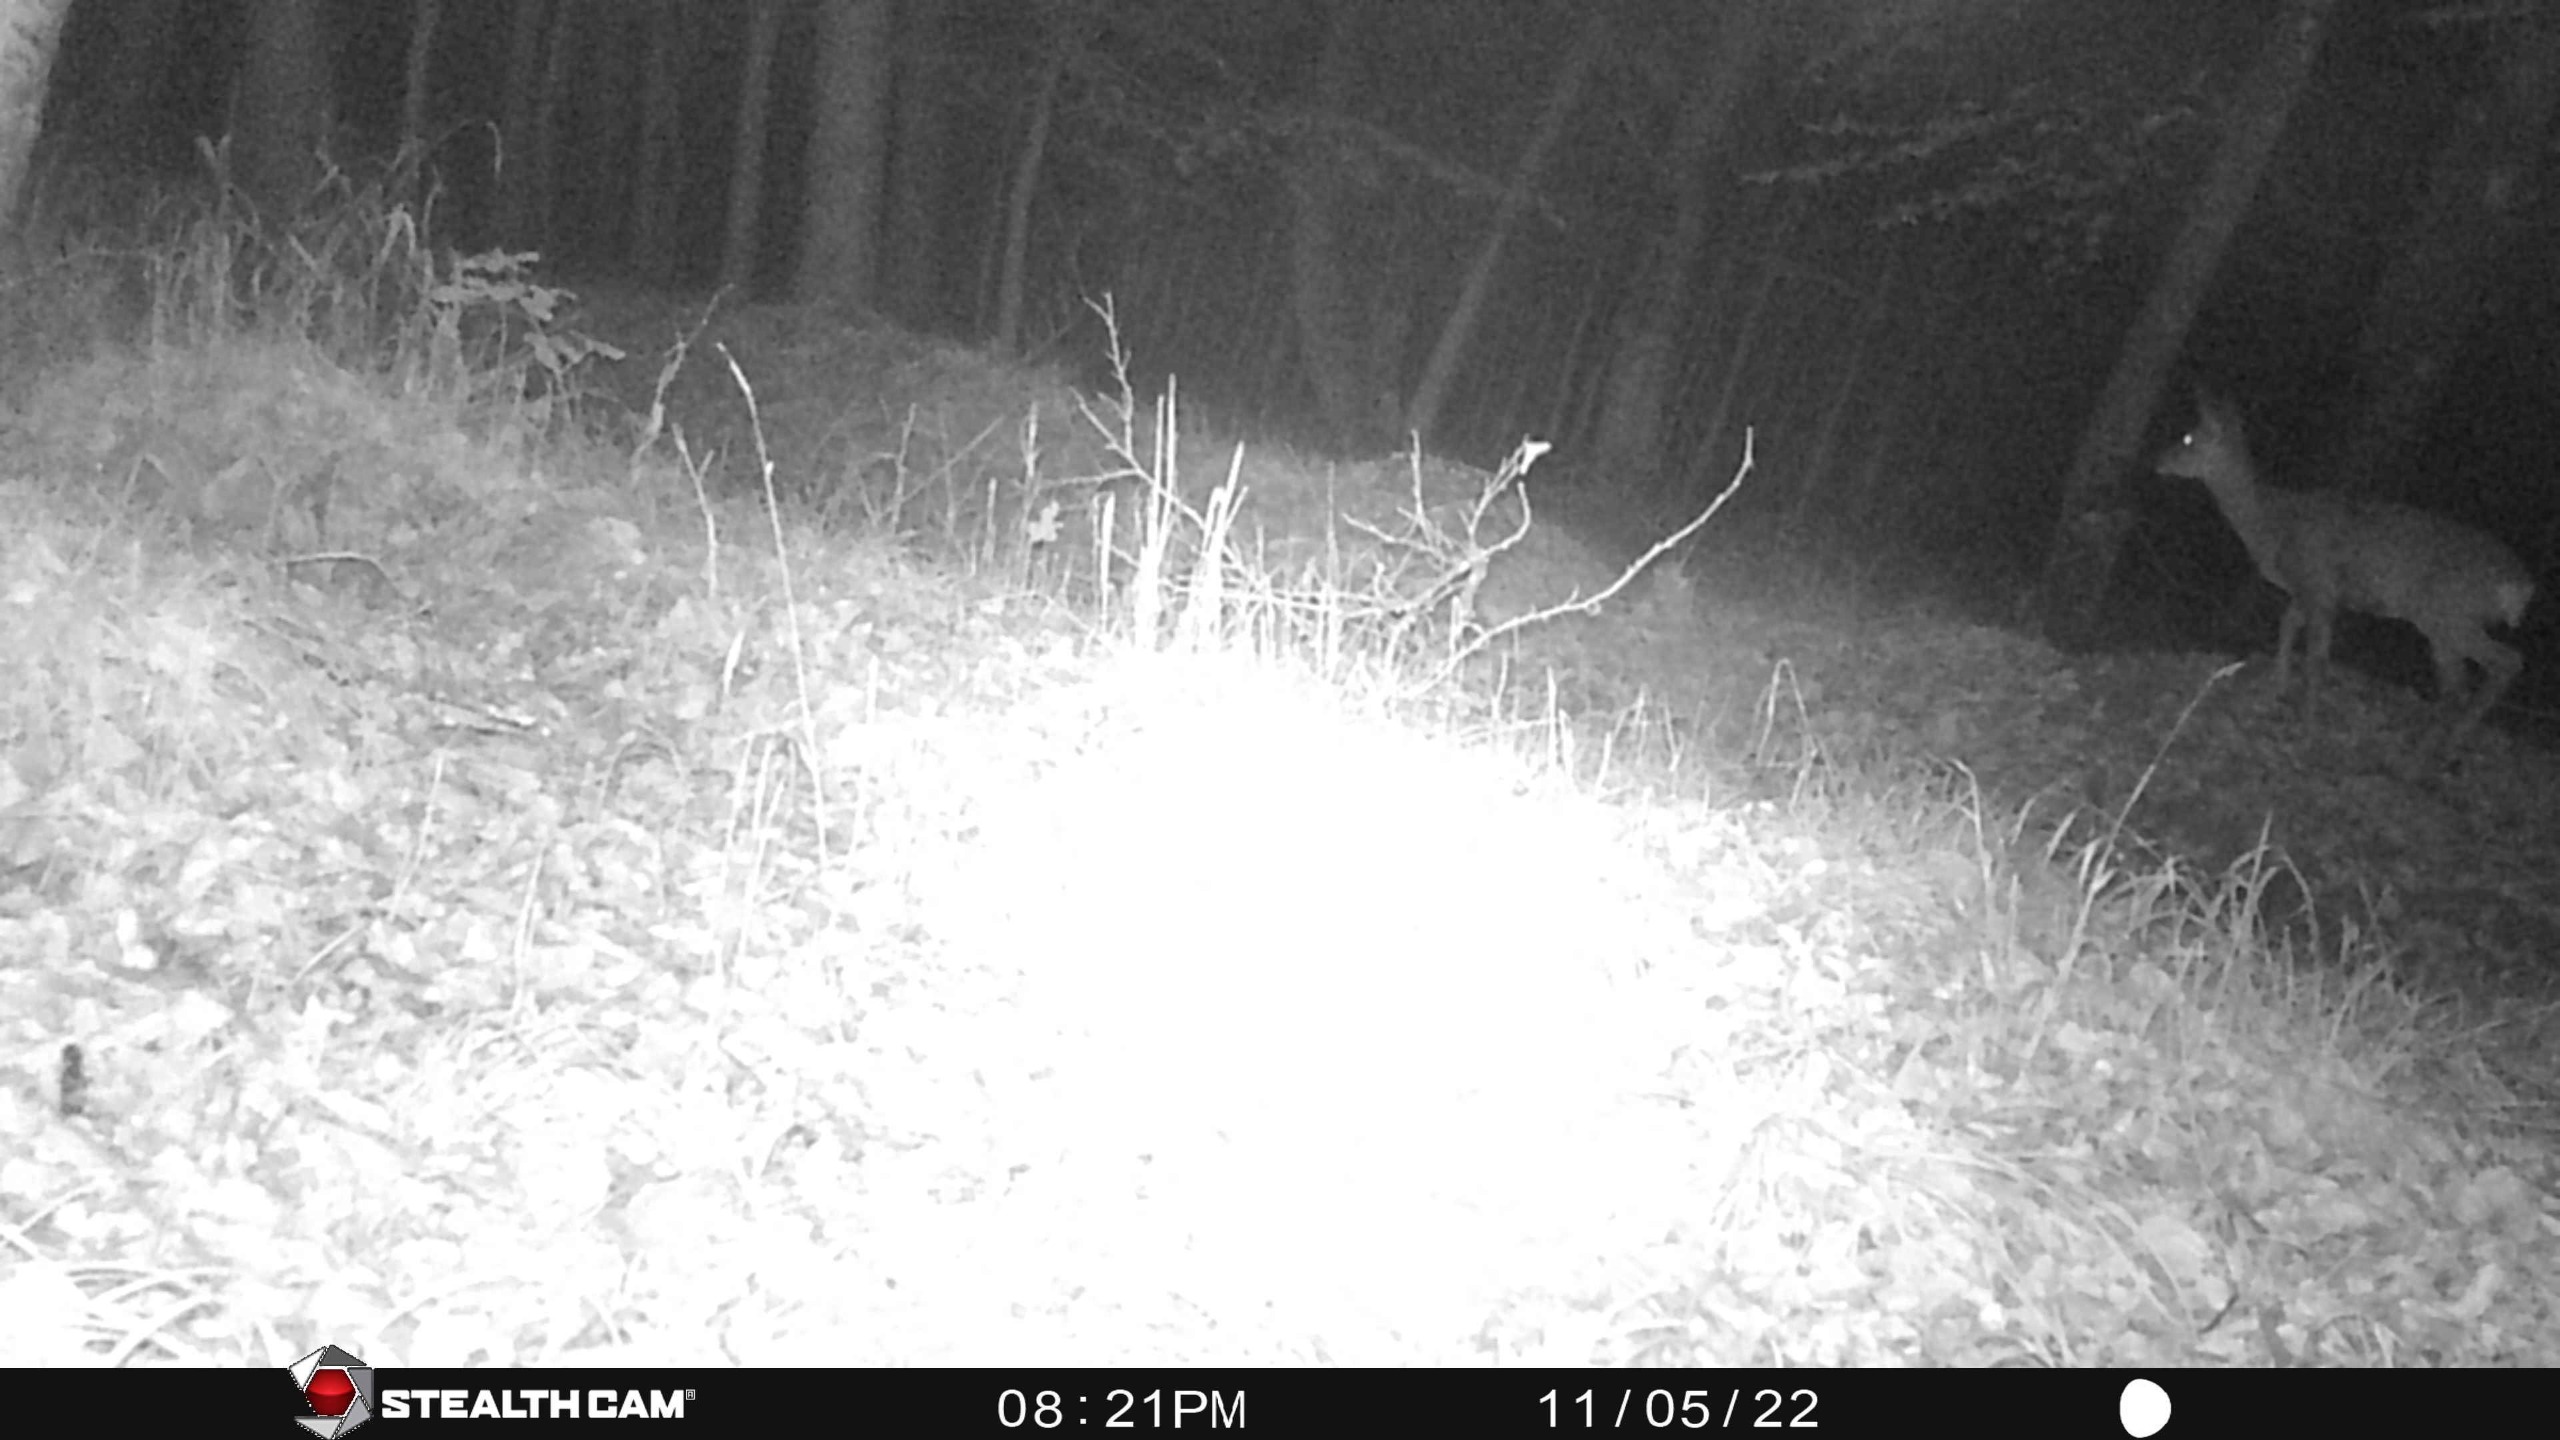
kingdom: Animalia
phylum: Chordata
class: Mammalia
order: Artiodactyla
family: Cervidae
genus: Capreolus
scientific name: Capreolus capreolus
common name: Rådyr
